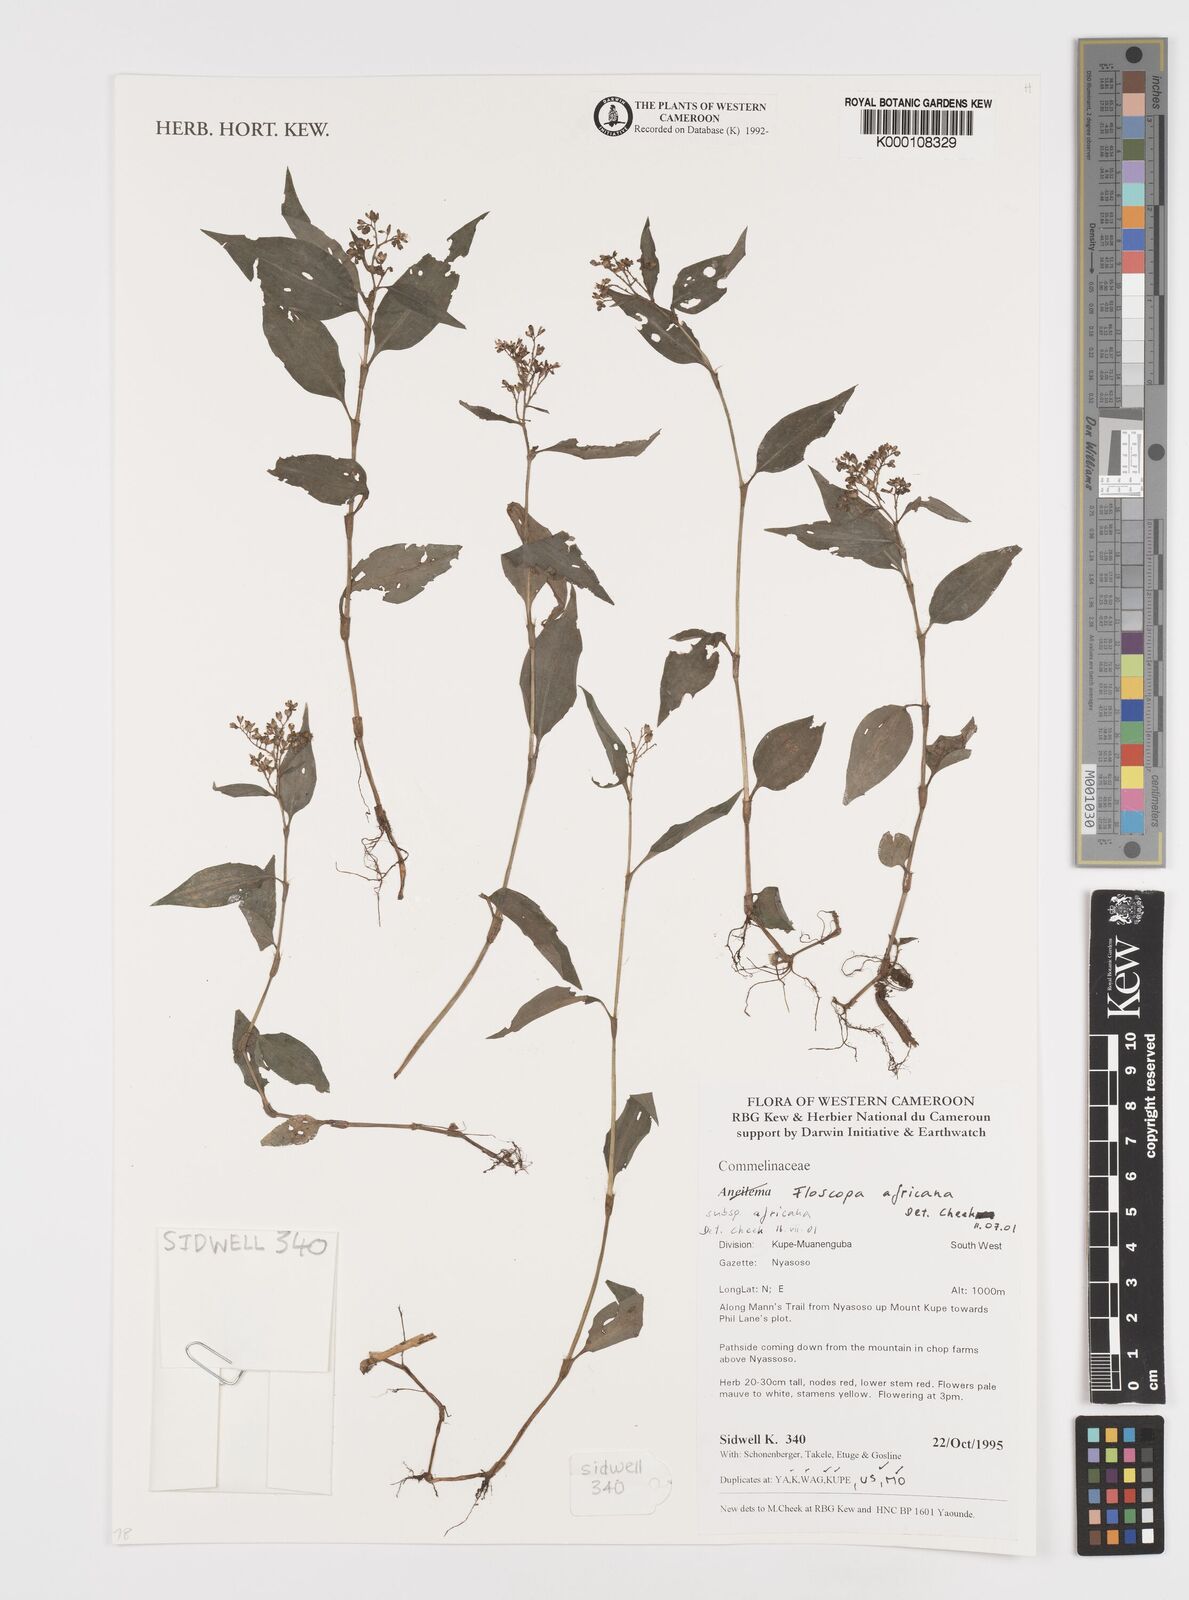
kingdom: Plantae
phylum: Tracheophyta
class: Liliopsida
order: Commelinales
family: Commelinaceae
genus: Floscopa
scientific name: Floscopa africana
